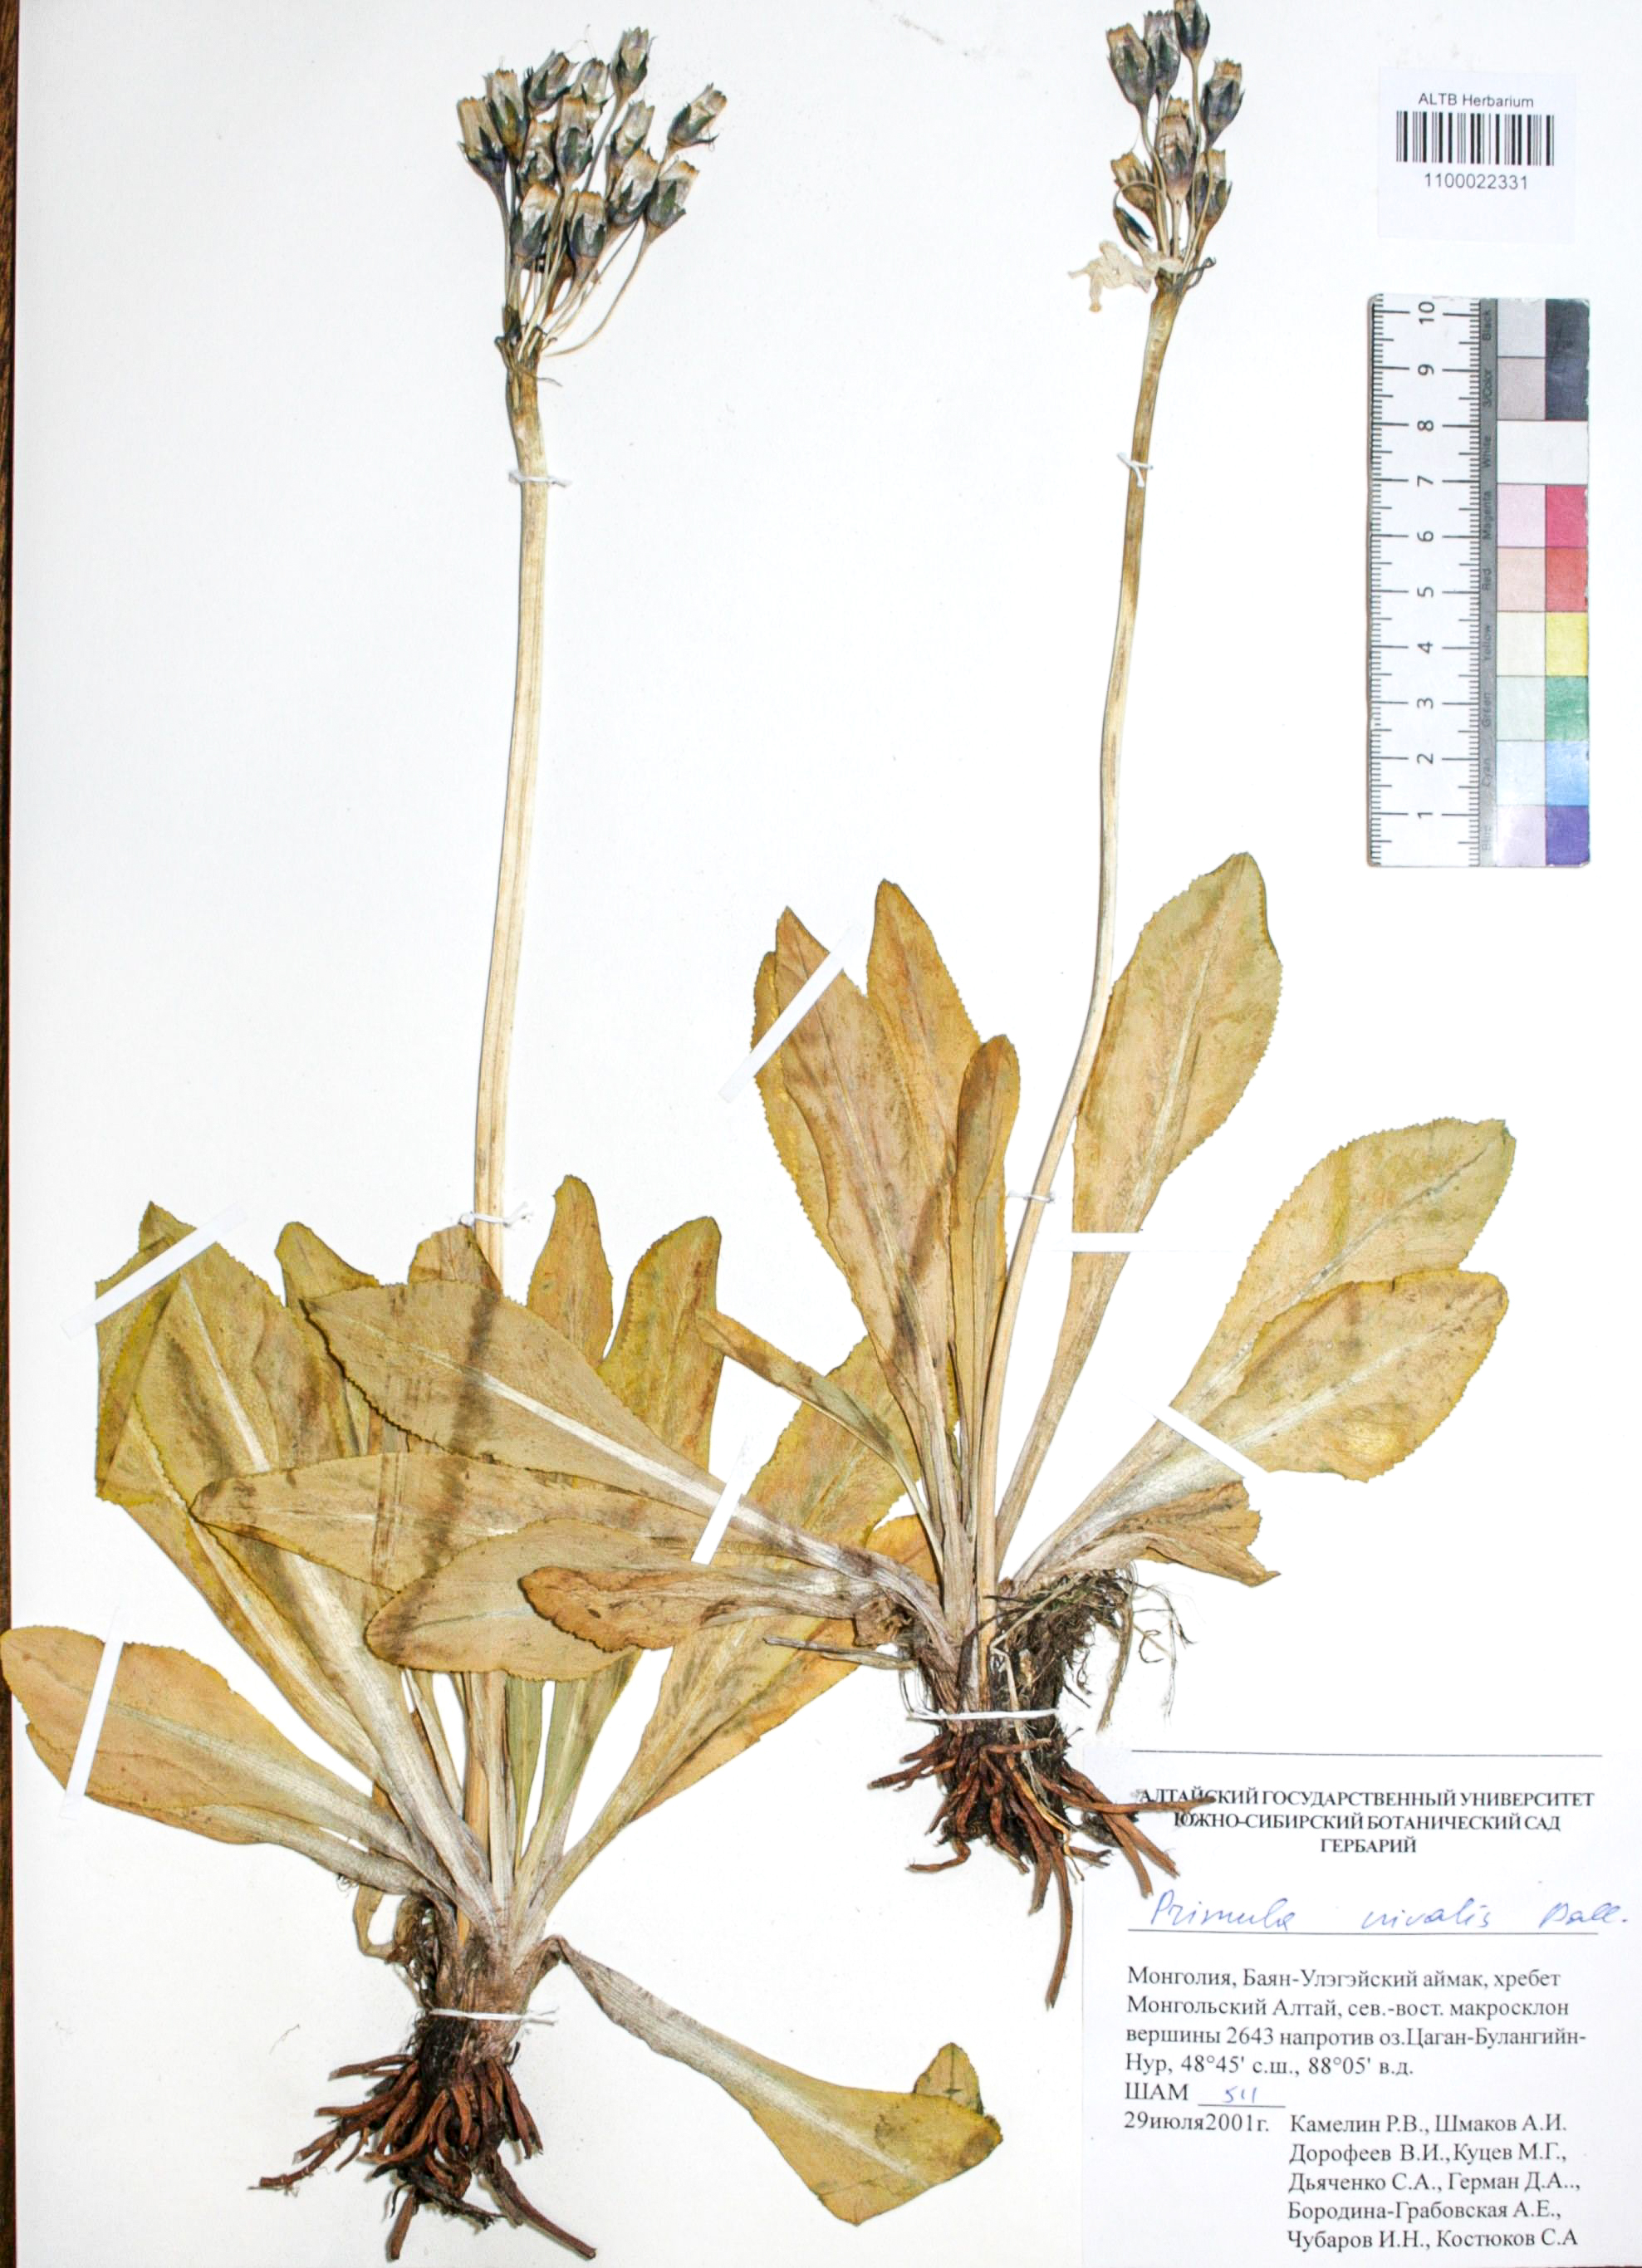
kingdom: Plantae
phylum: Tracheophyta
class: Magnoliopsida
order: Ericales
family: Primulaceae
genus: Primula
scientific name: Primula nivalis
